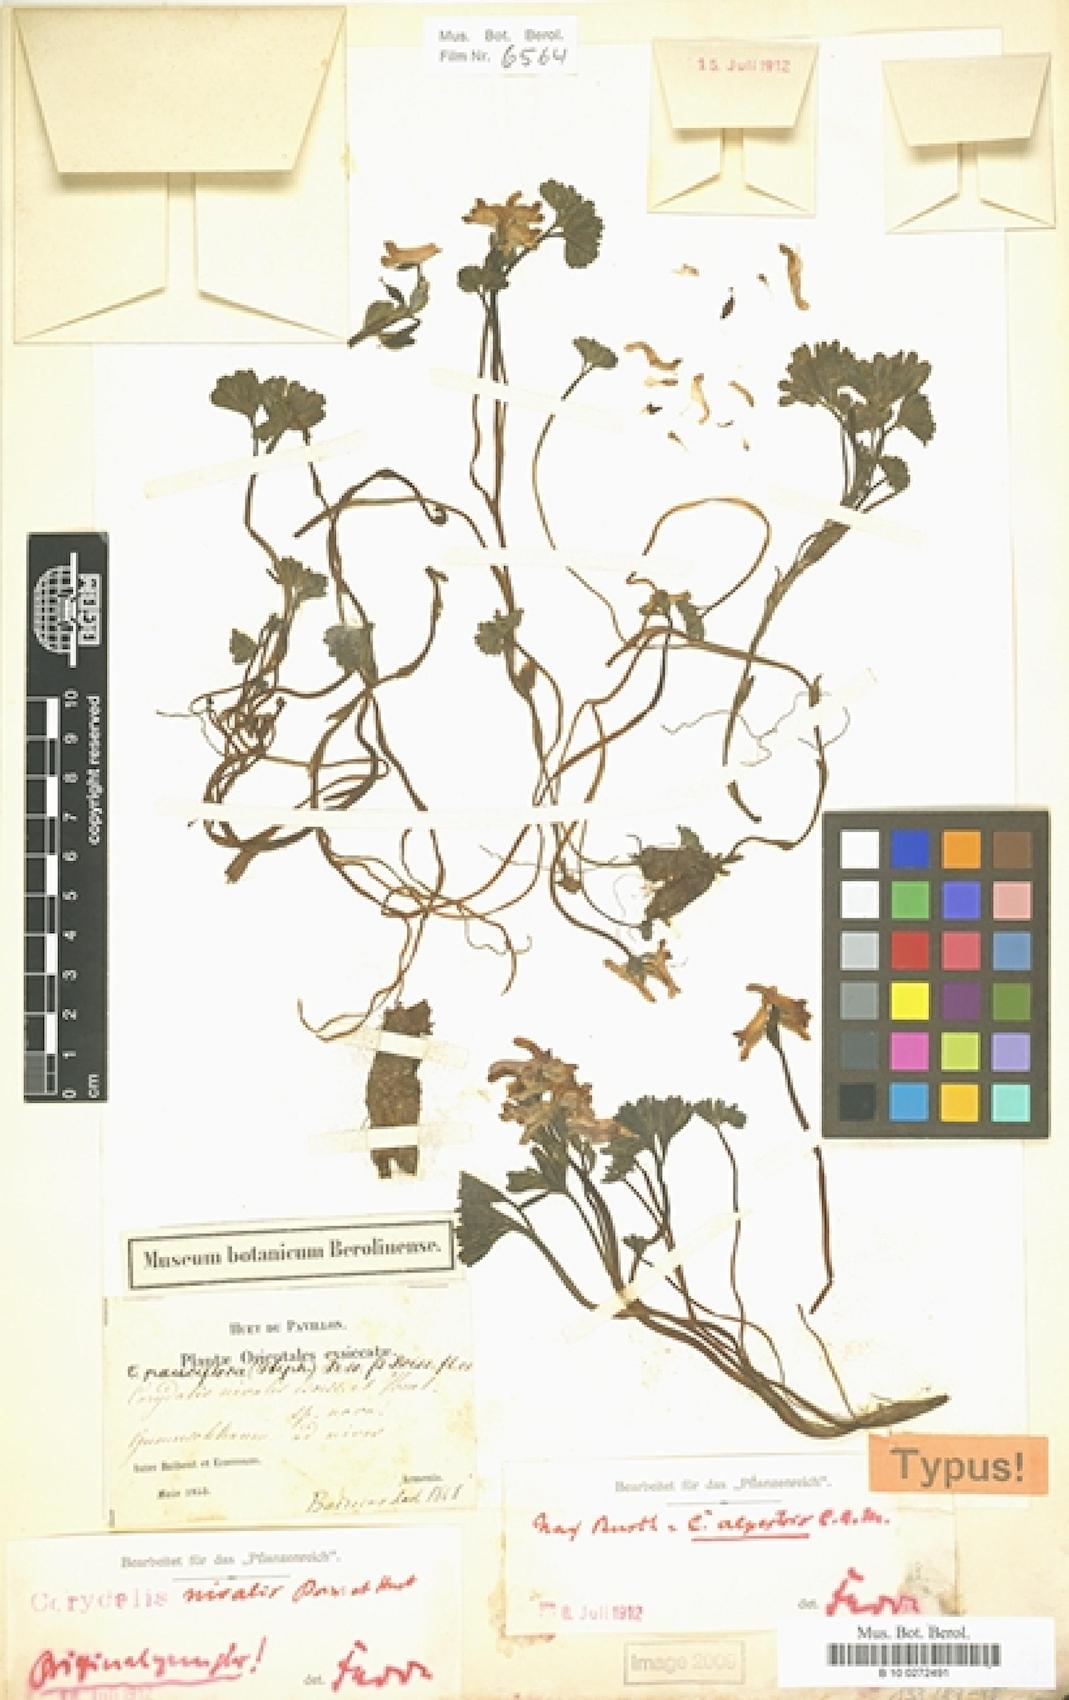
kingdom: Plantae
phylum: Tracheophyta
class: Magnoliopsida
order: Ranunculales
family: Papaveraceae
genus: Corydalis
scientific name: Corydalis alpestris
